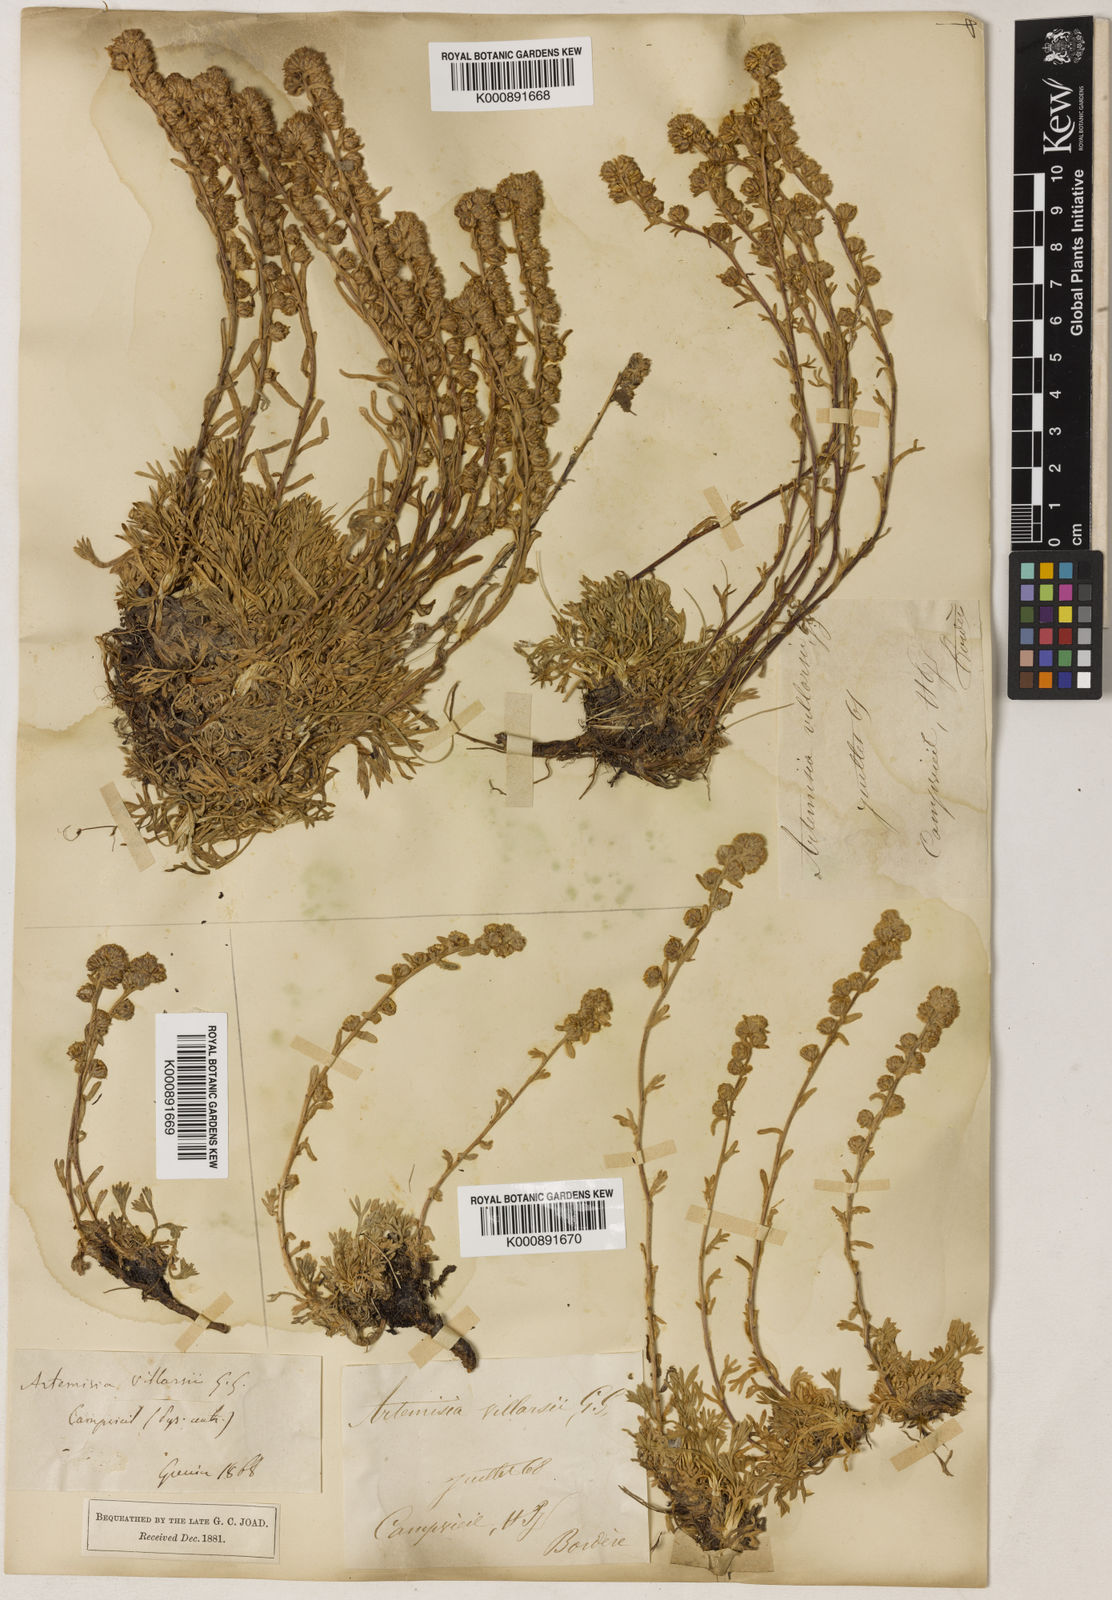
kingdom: Plantae
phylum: Tracheophyta
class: Magnoliopsida
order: Asterales
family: Asteraceae
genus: Artemisia
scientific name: Artemisia eriantha
